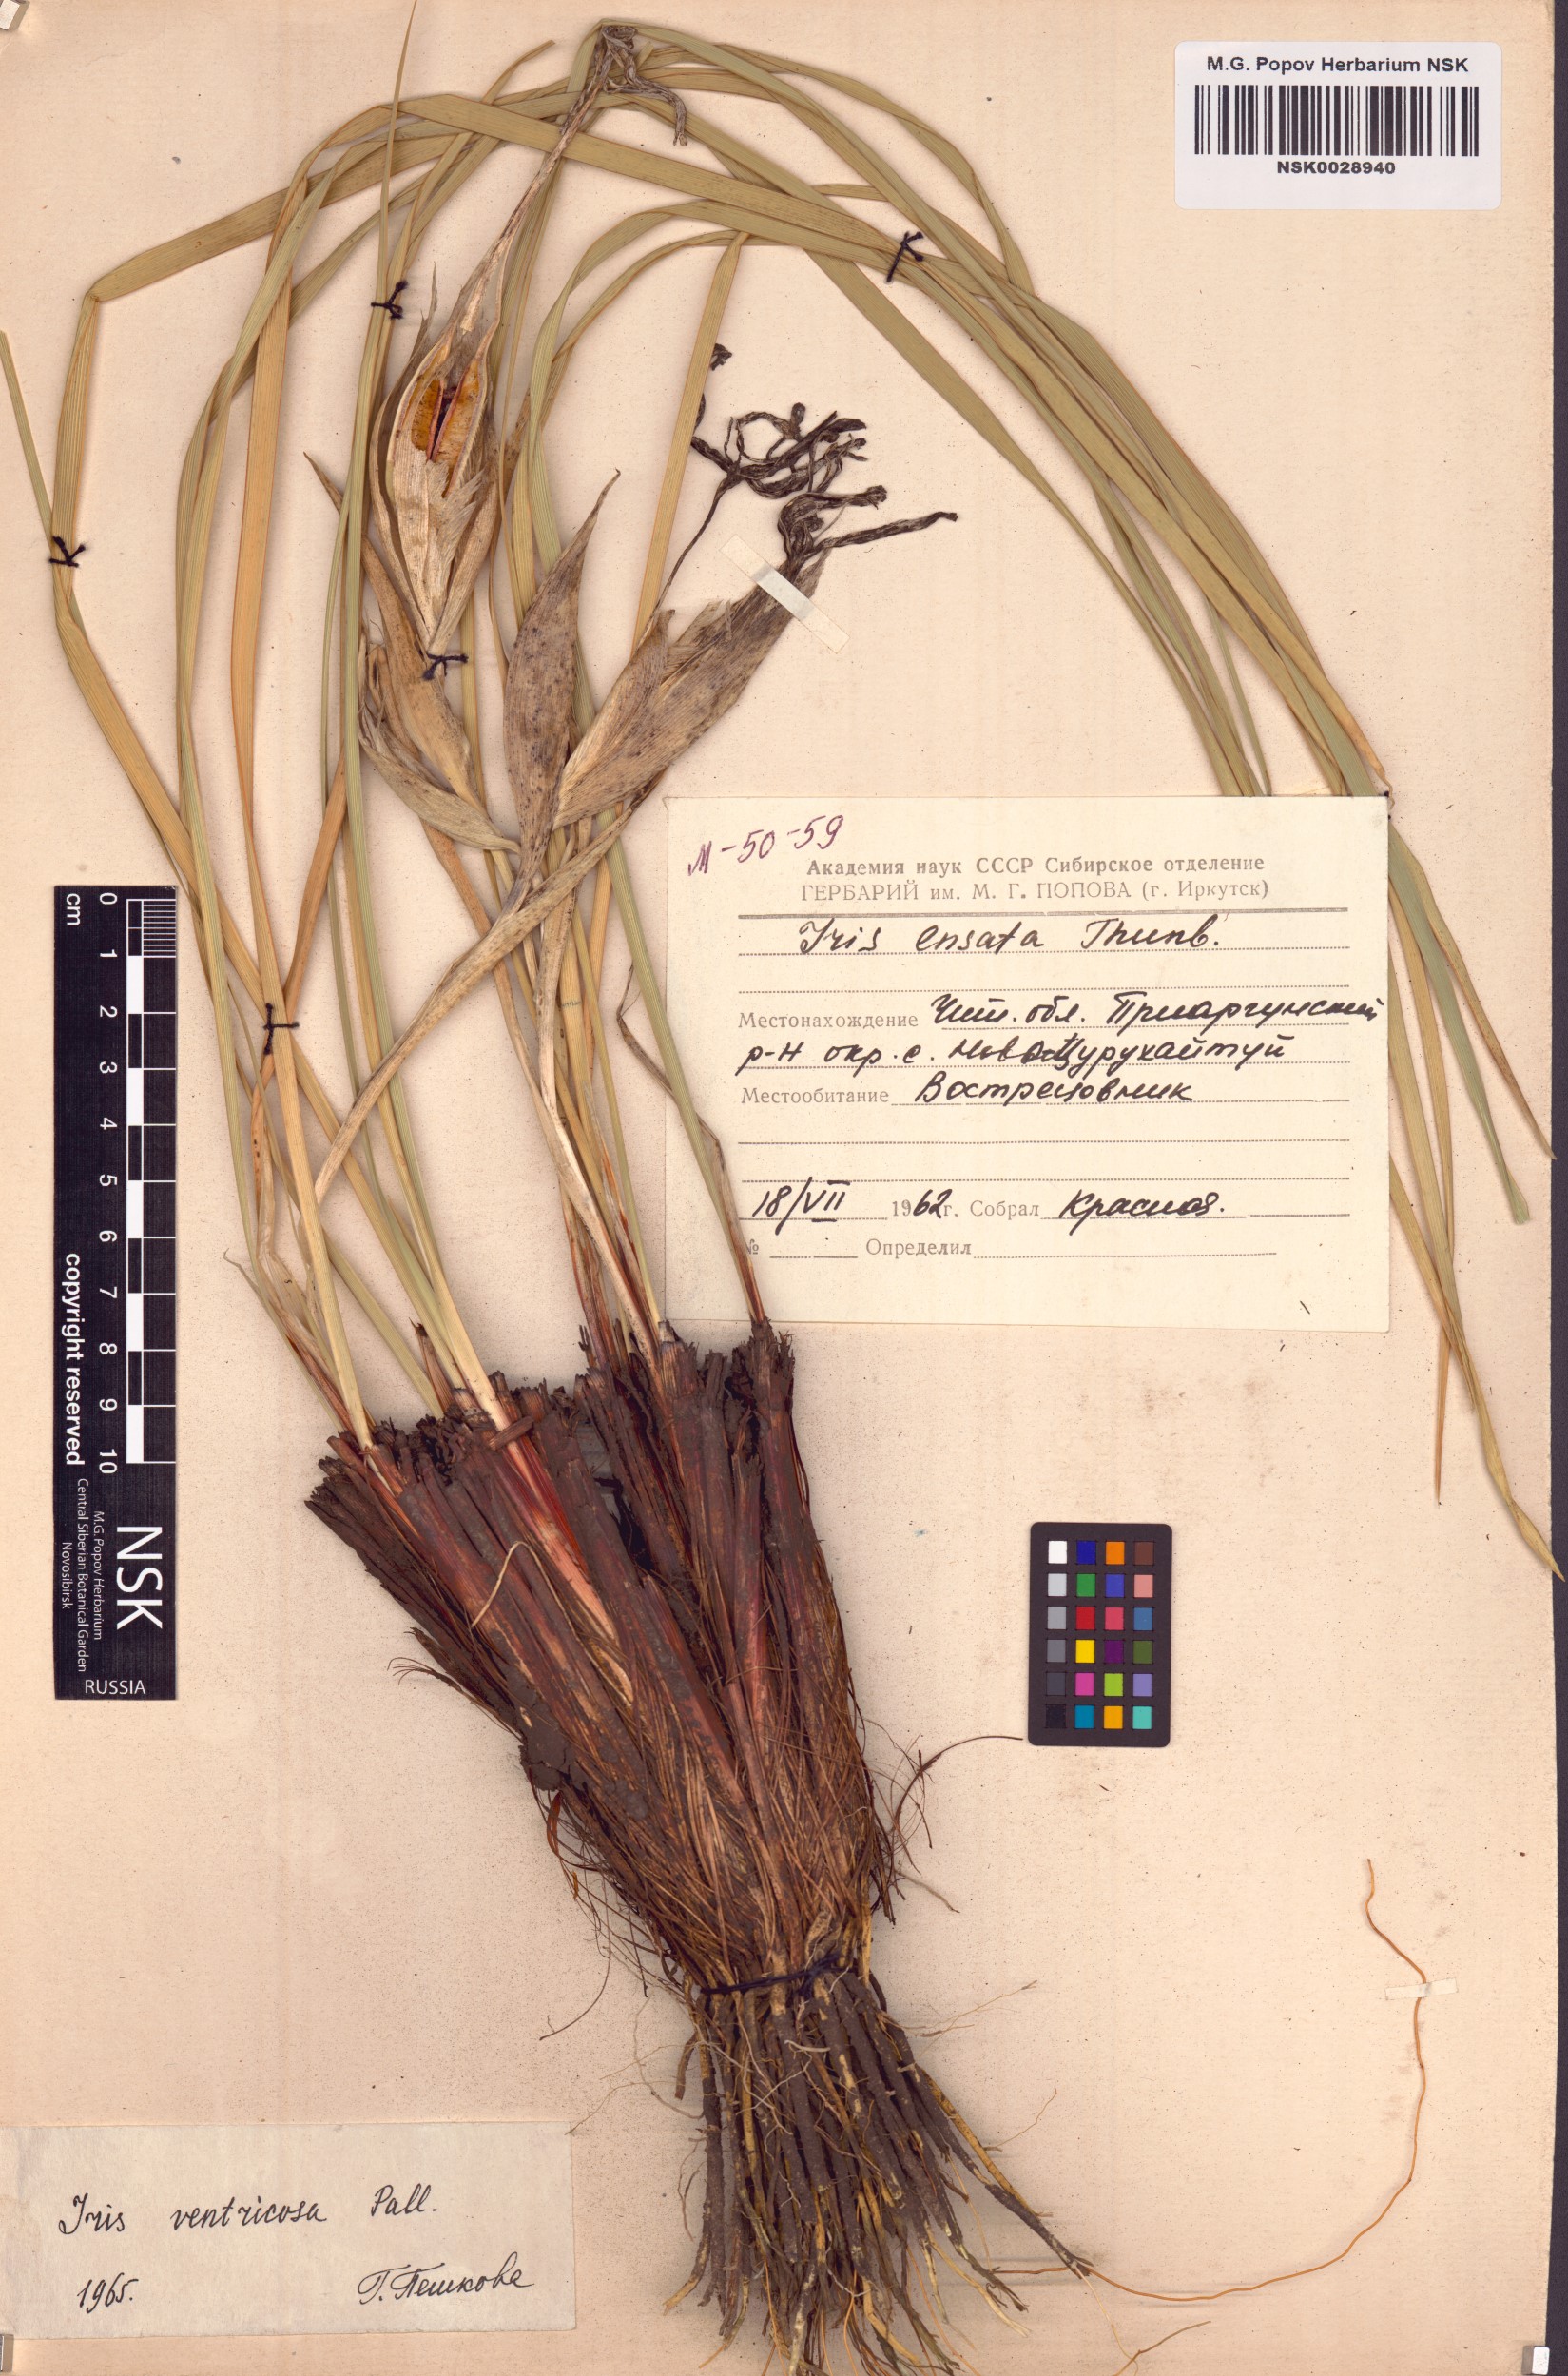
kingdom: Plantae
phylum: Tracheophyta
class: Liliopsida
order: Asparagales
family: Iridaceae
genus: Iris
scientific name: Iris ventricosa
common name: Purple-flower iris
